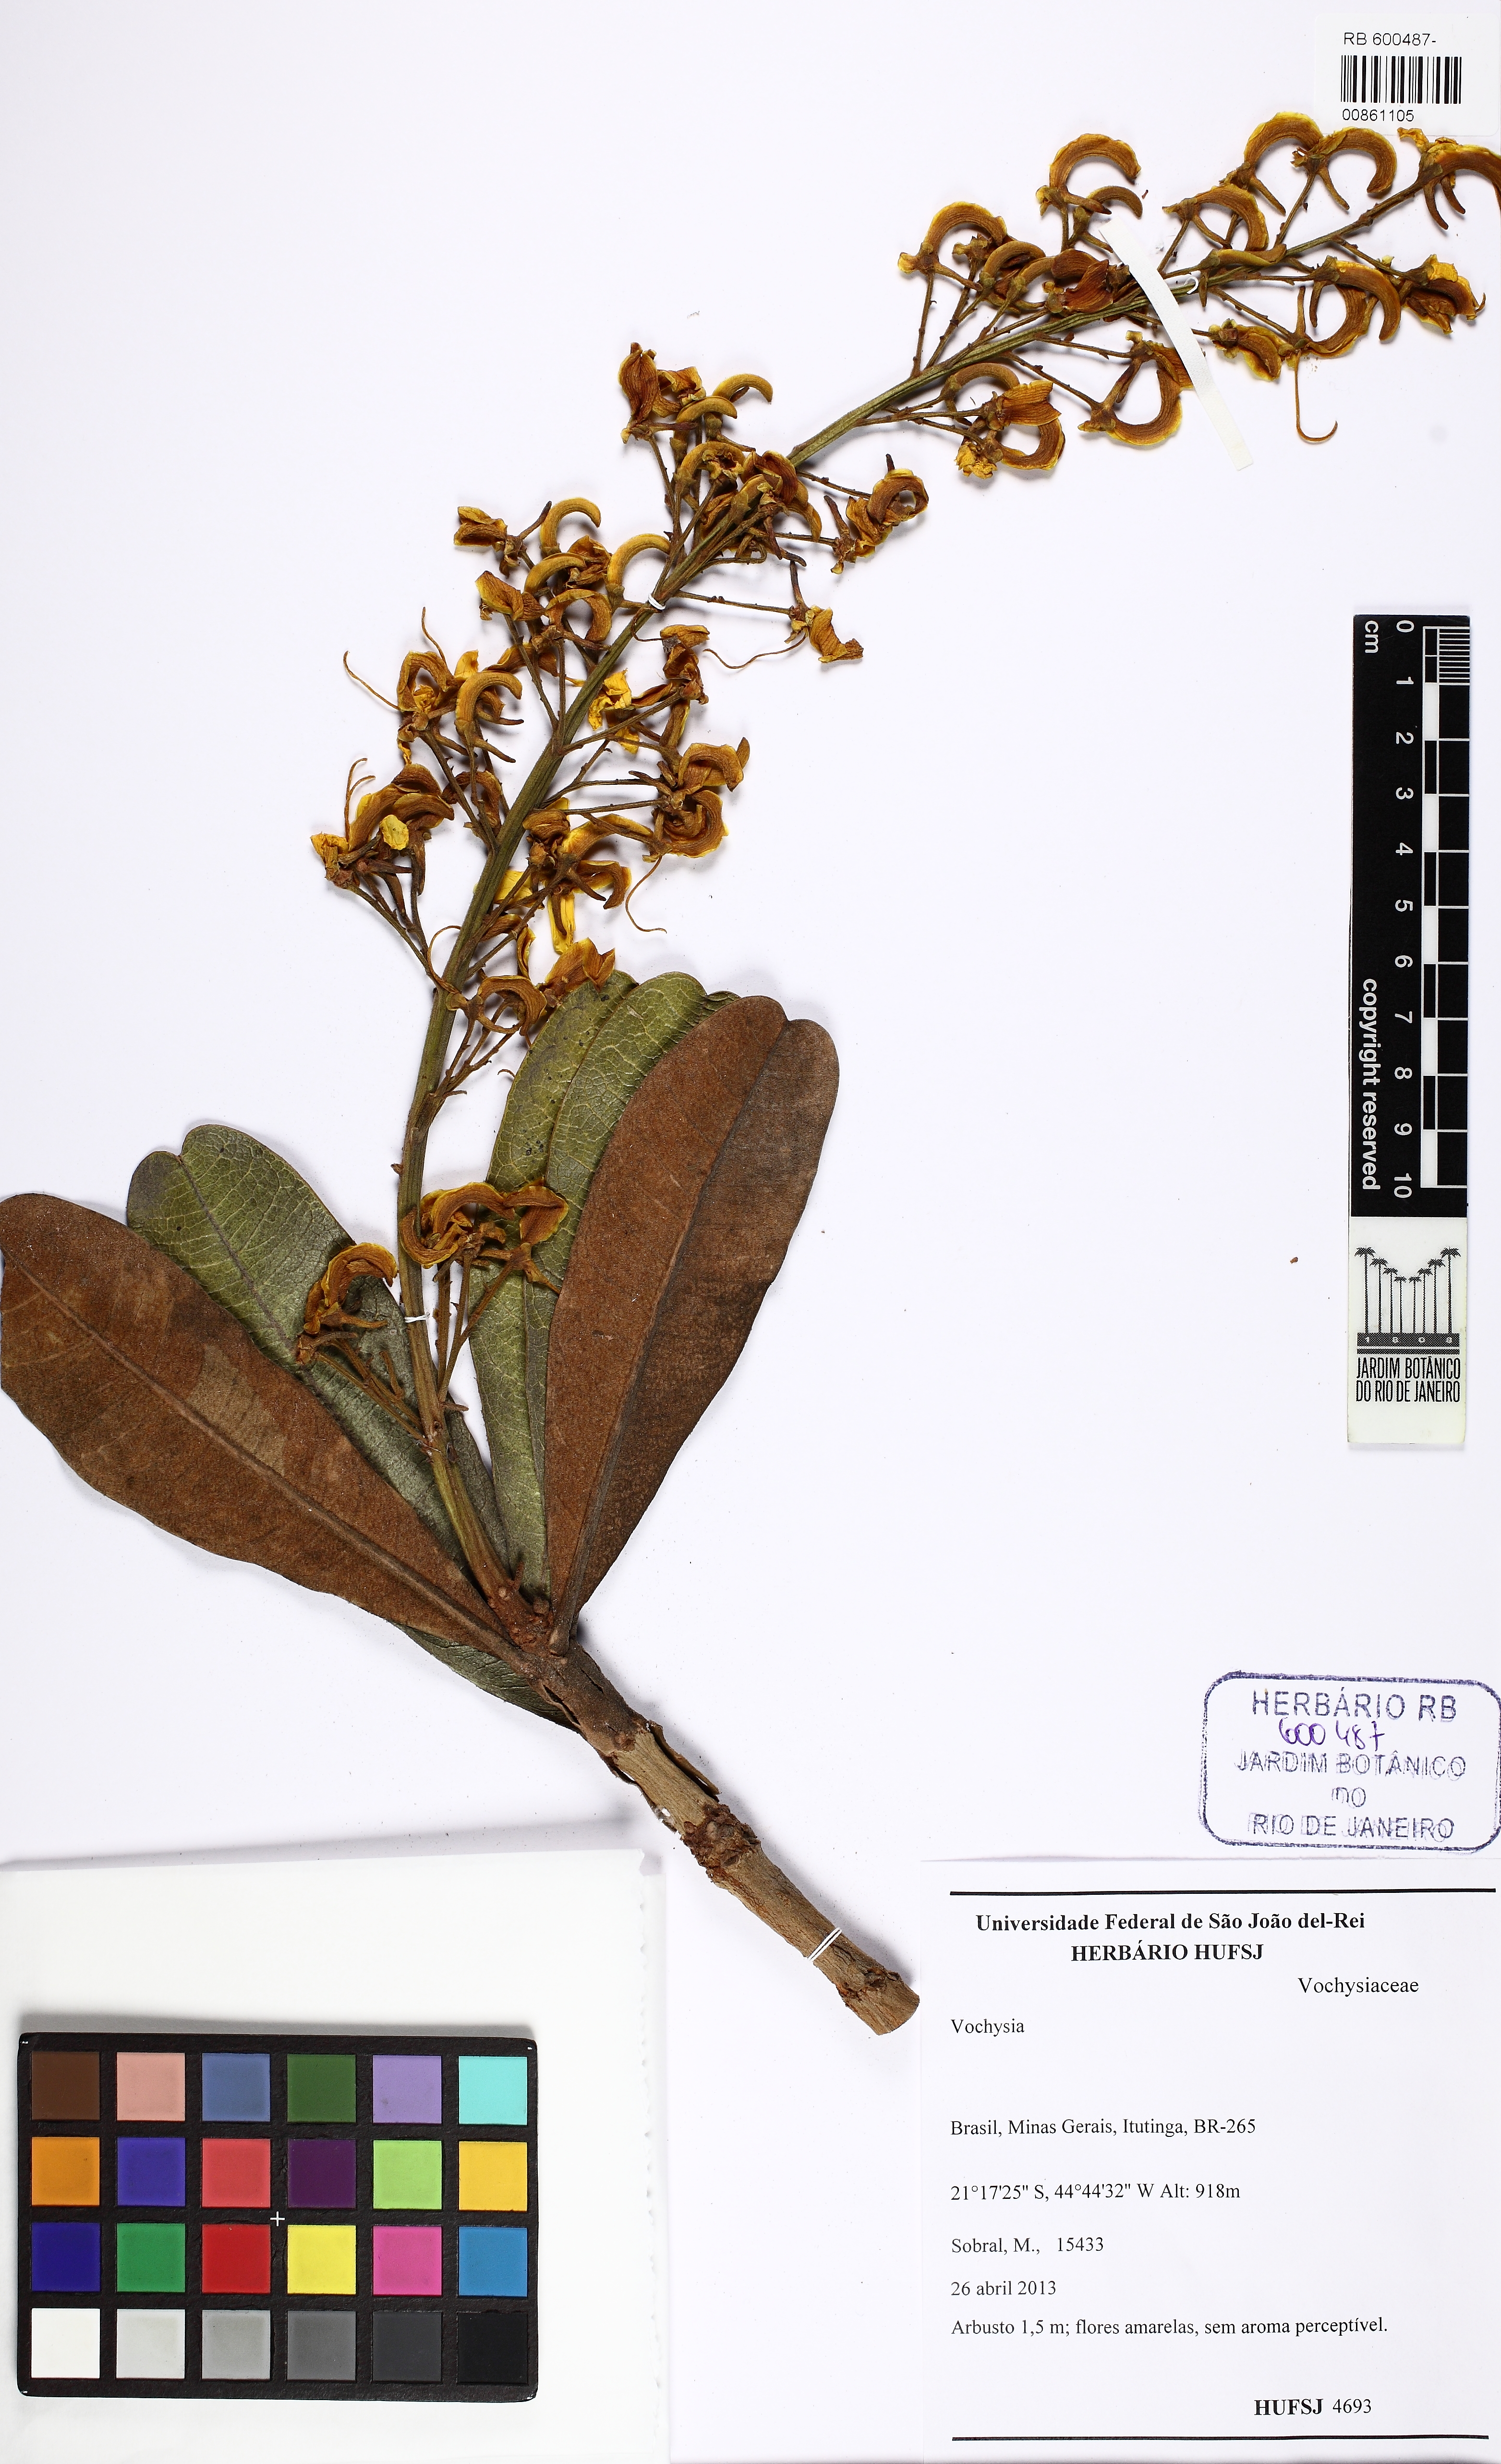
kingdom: Plantae
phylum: Tracheophyta
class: Magnoliopsida
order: Myrtales
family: Vochysiaceae
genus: Vochysia
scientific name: Vochysia cinnamomea
